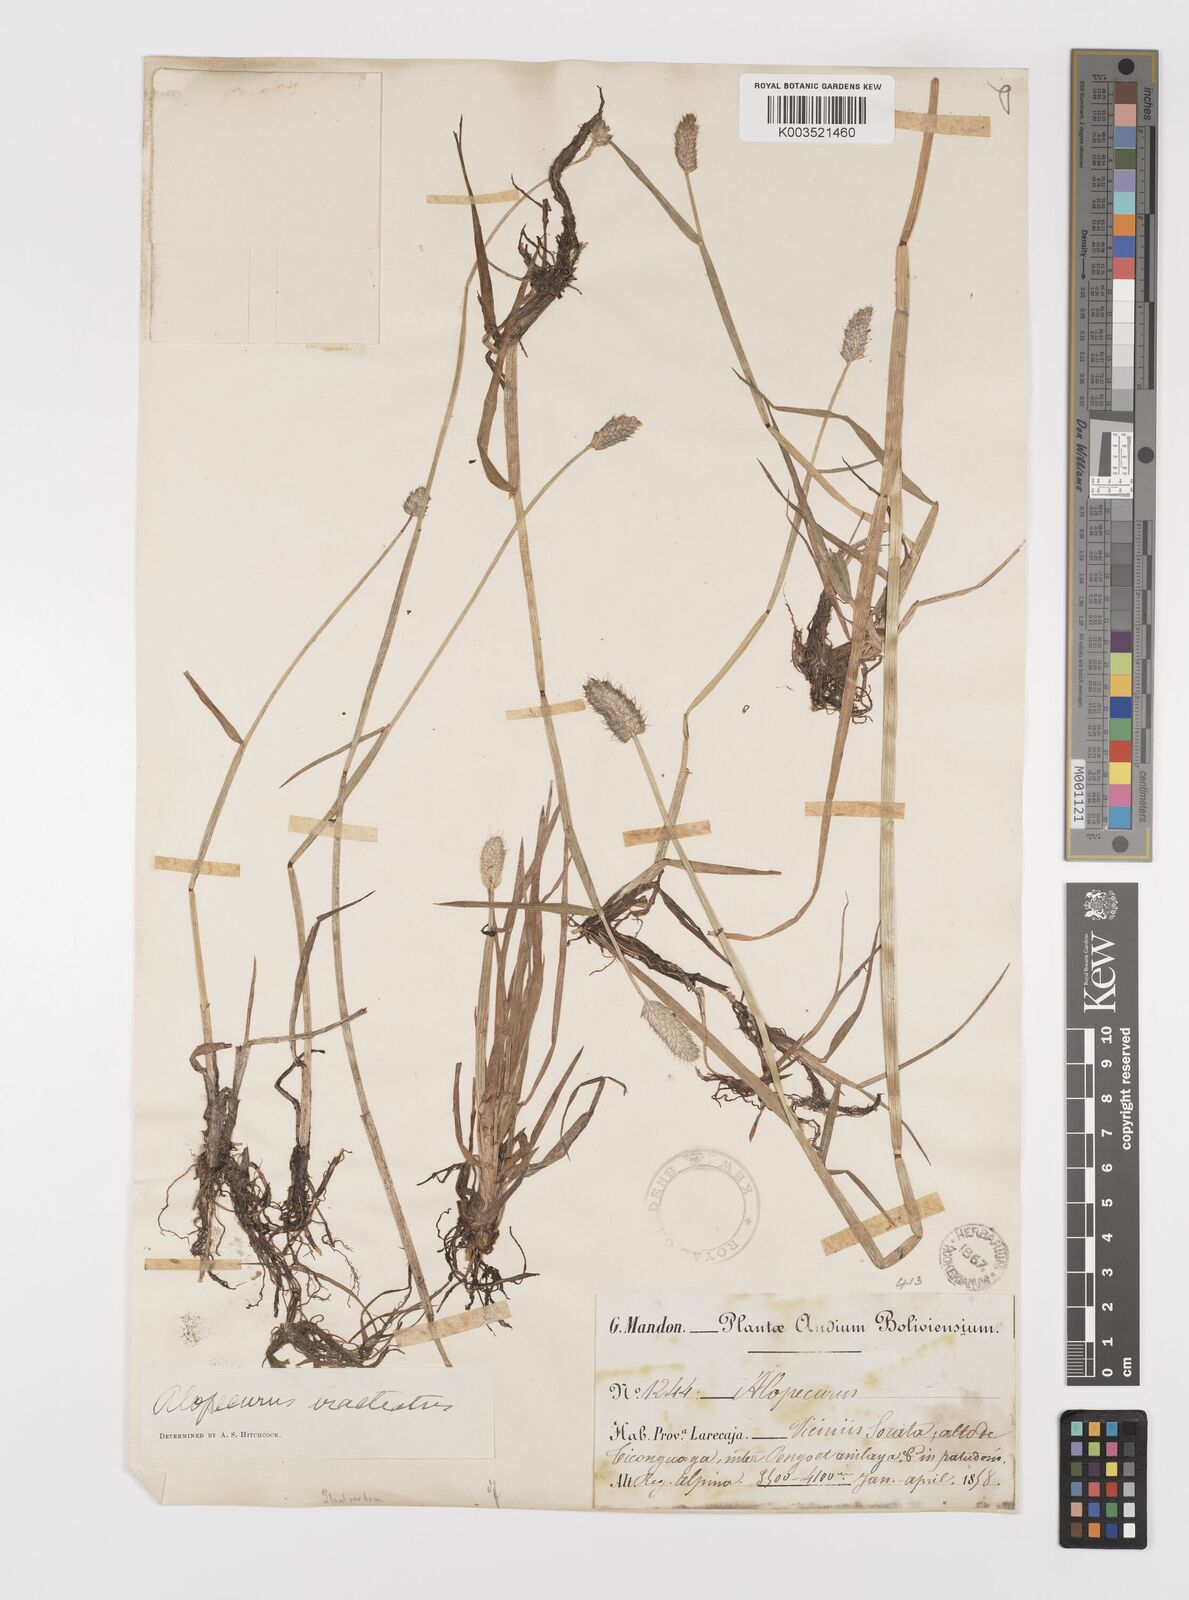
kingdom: Plantae
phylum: Tracheophyta
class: Liliopsida
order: Poales
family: Poaceae
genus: Alopecurus
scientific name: Alopecurus magellanicus
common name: Alpine foxtail
